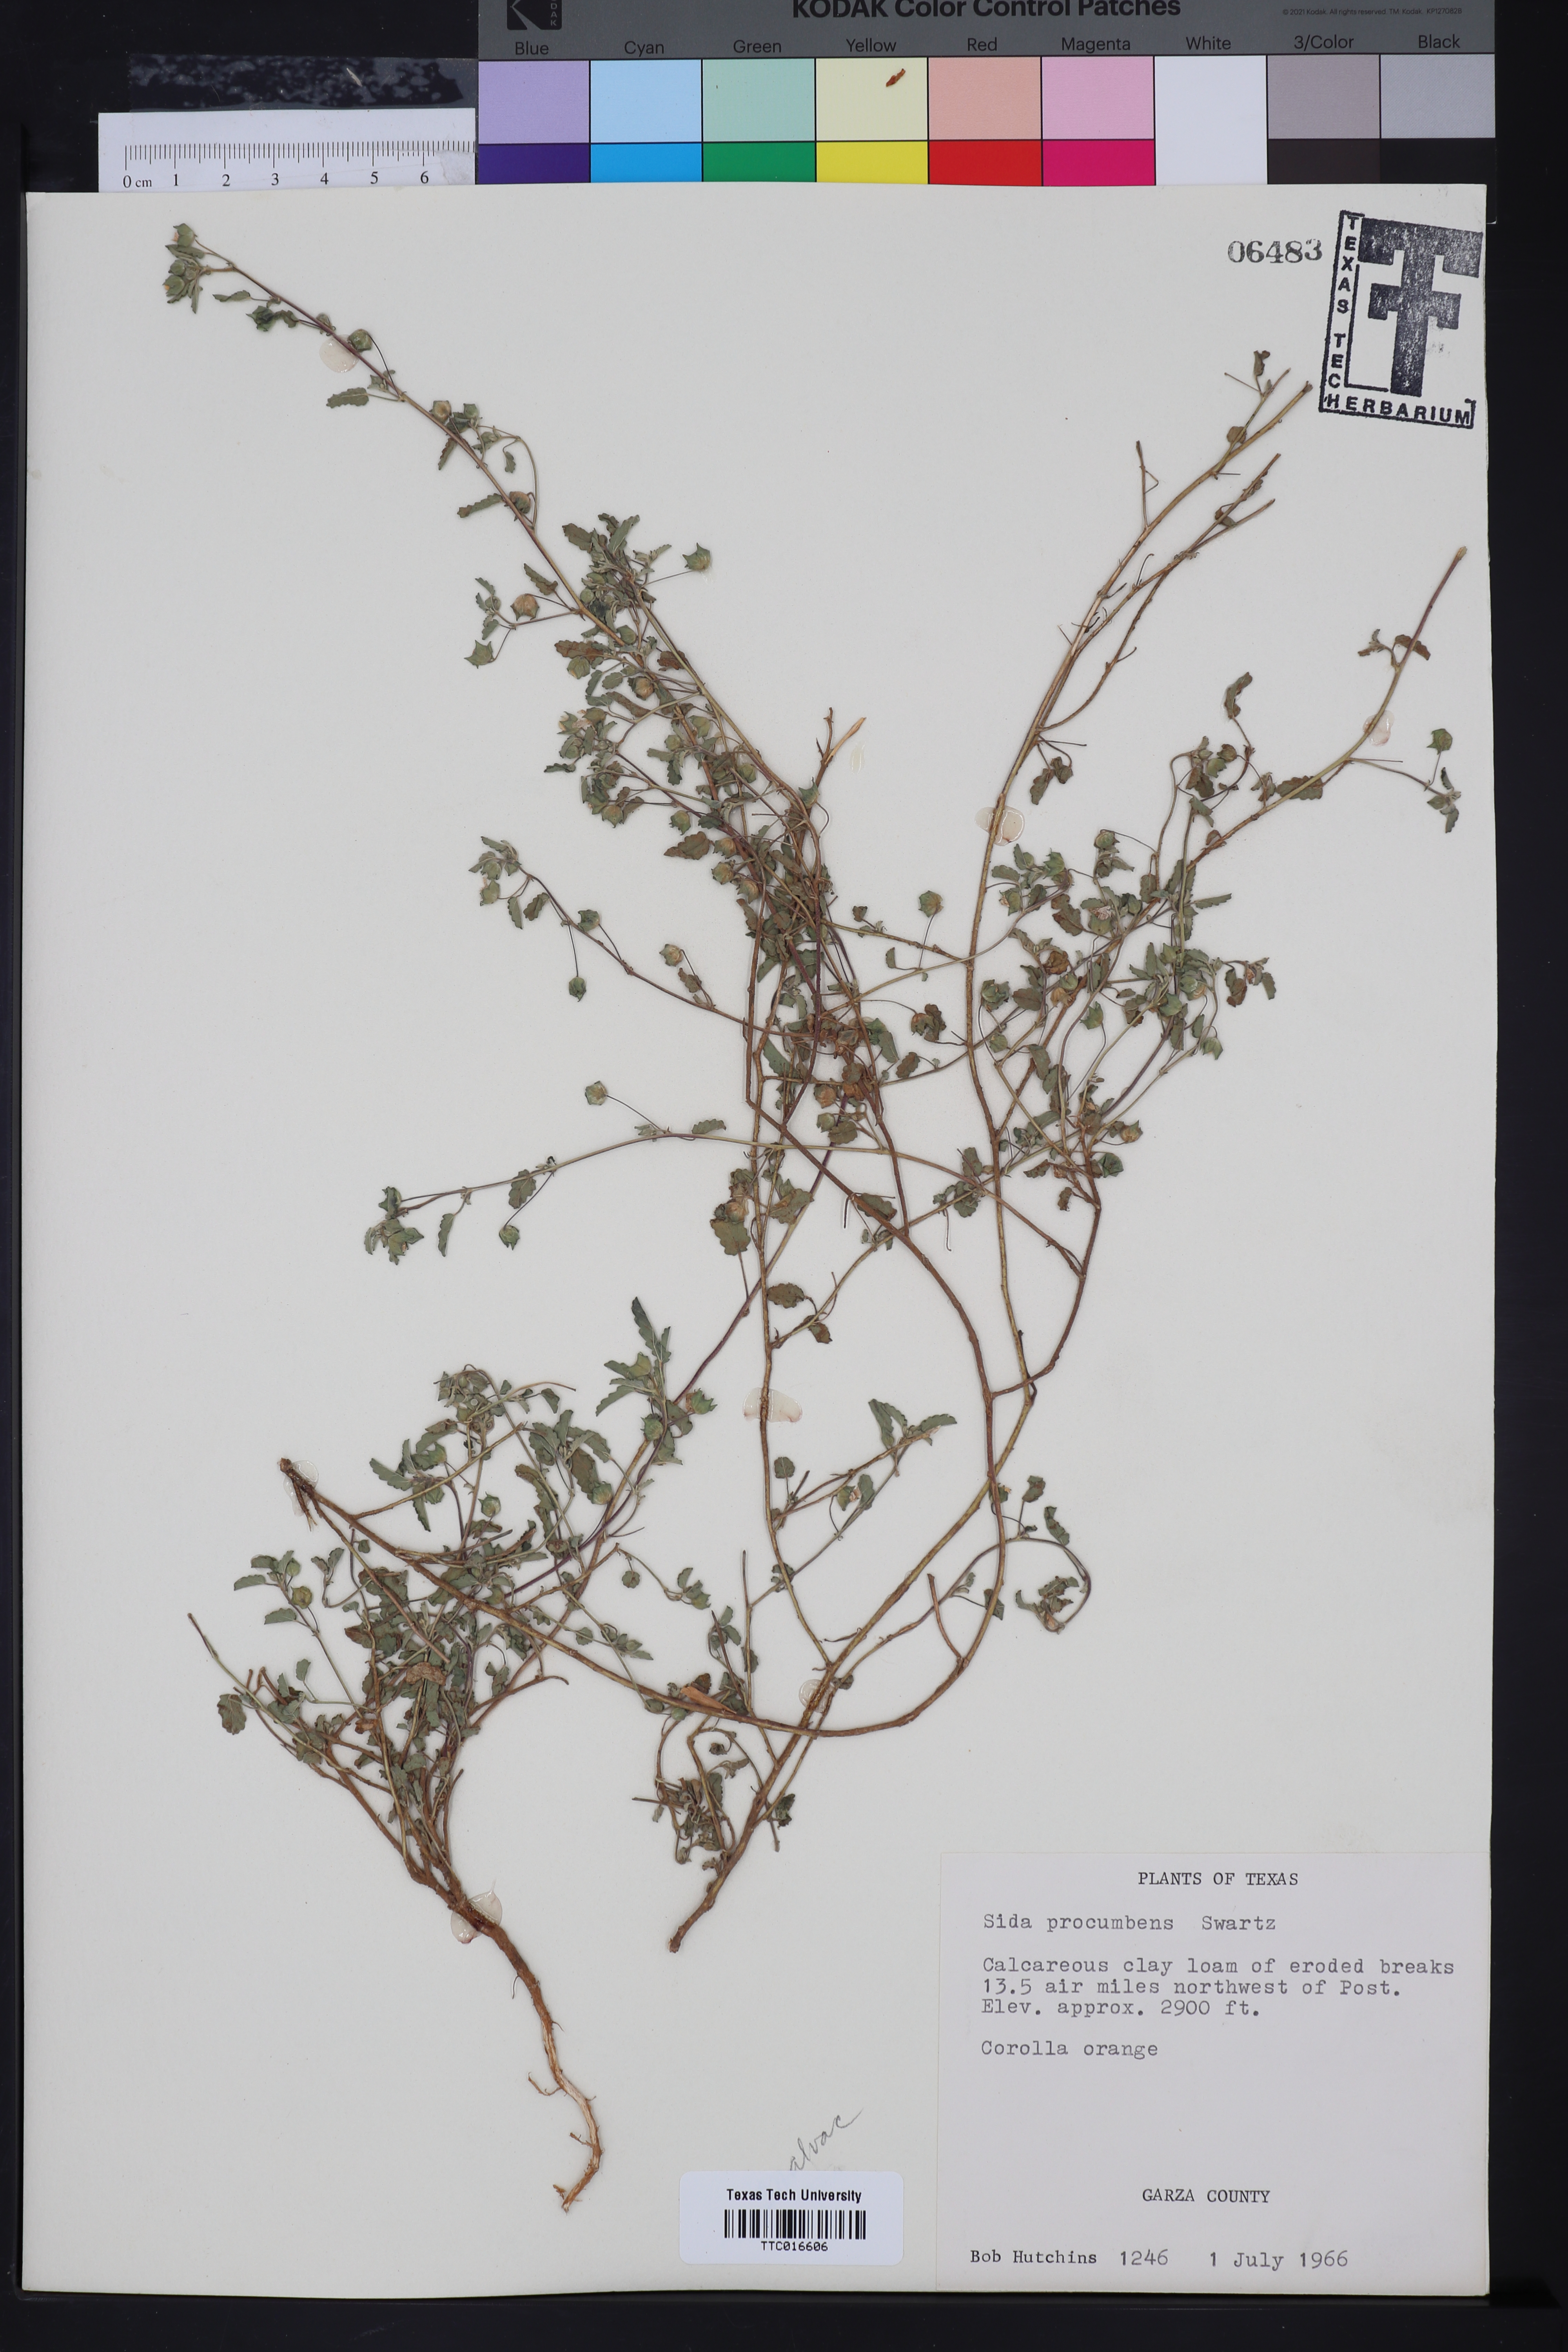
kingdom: Plantae
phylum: Tracheophyta
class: Magnoliopsida
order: Malvales
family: Malvaceae
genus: Sida
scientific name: Sida abutilifolia
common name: Spreading fanpetals
